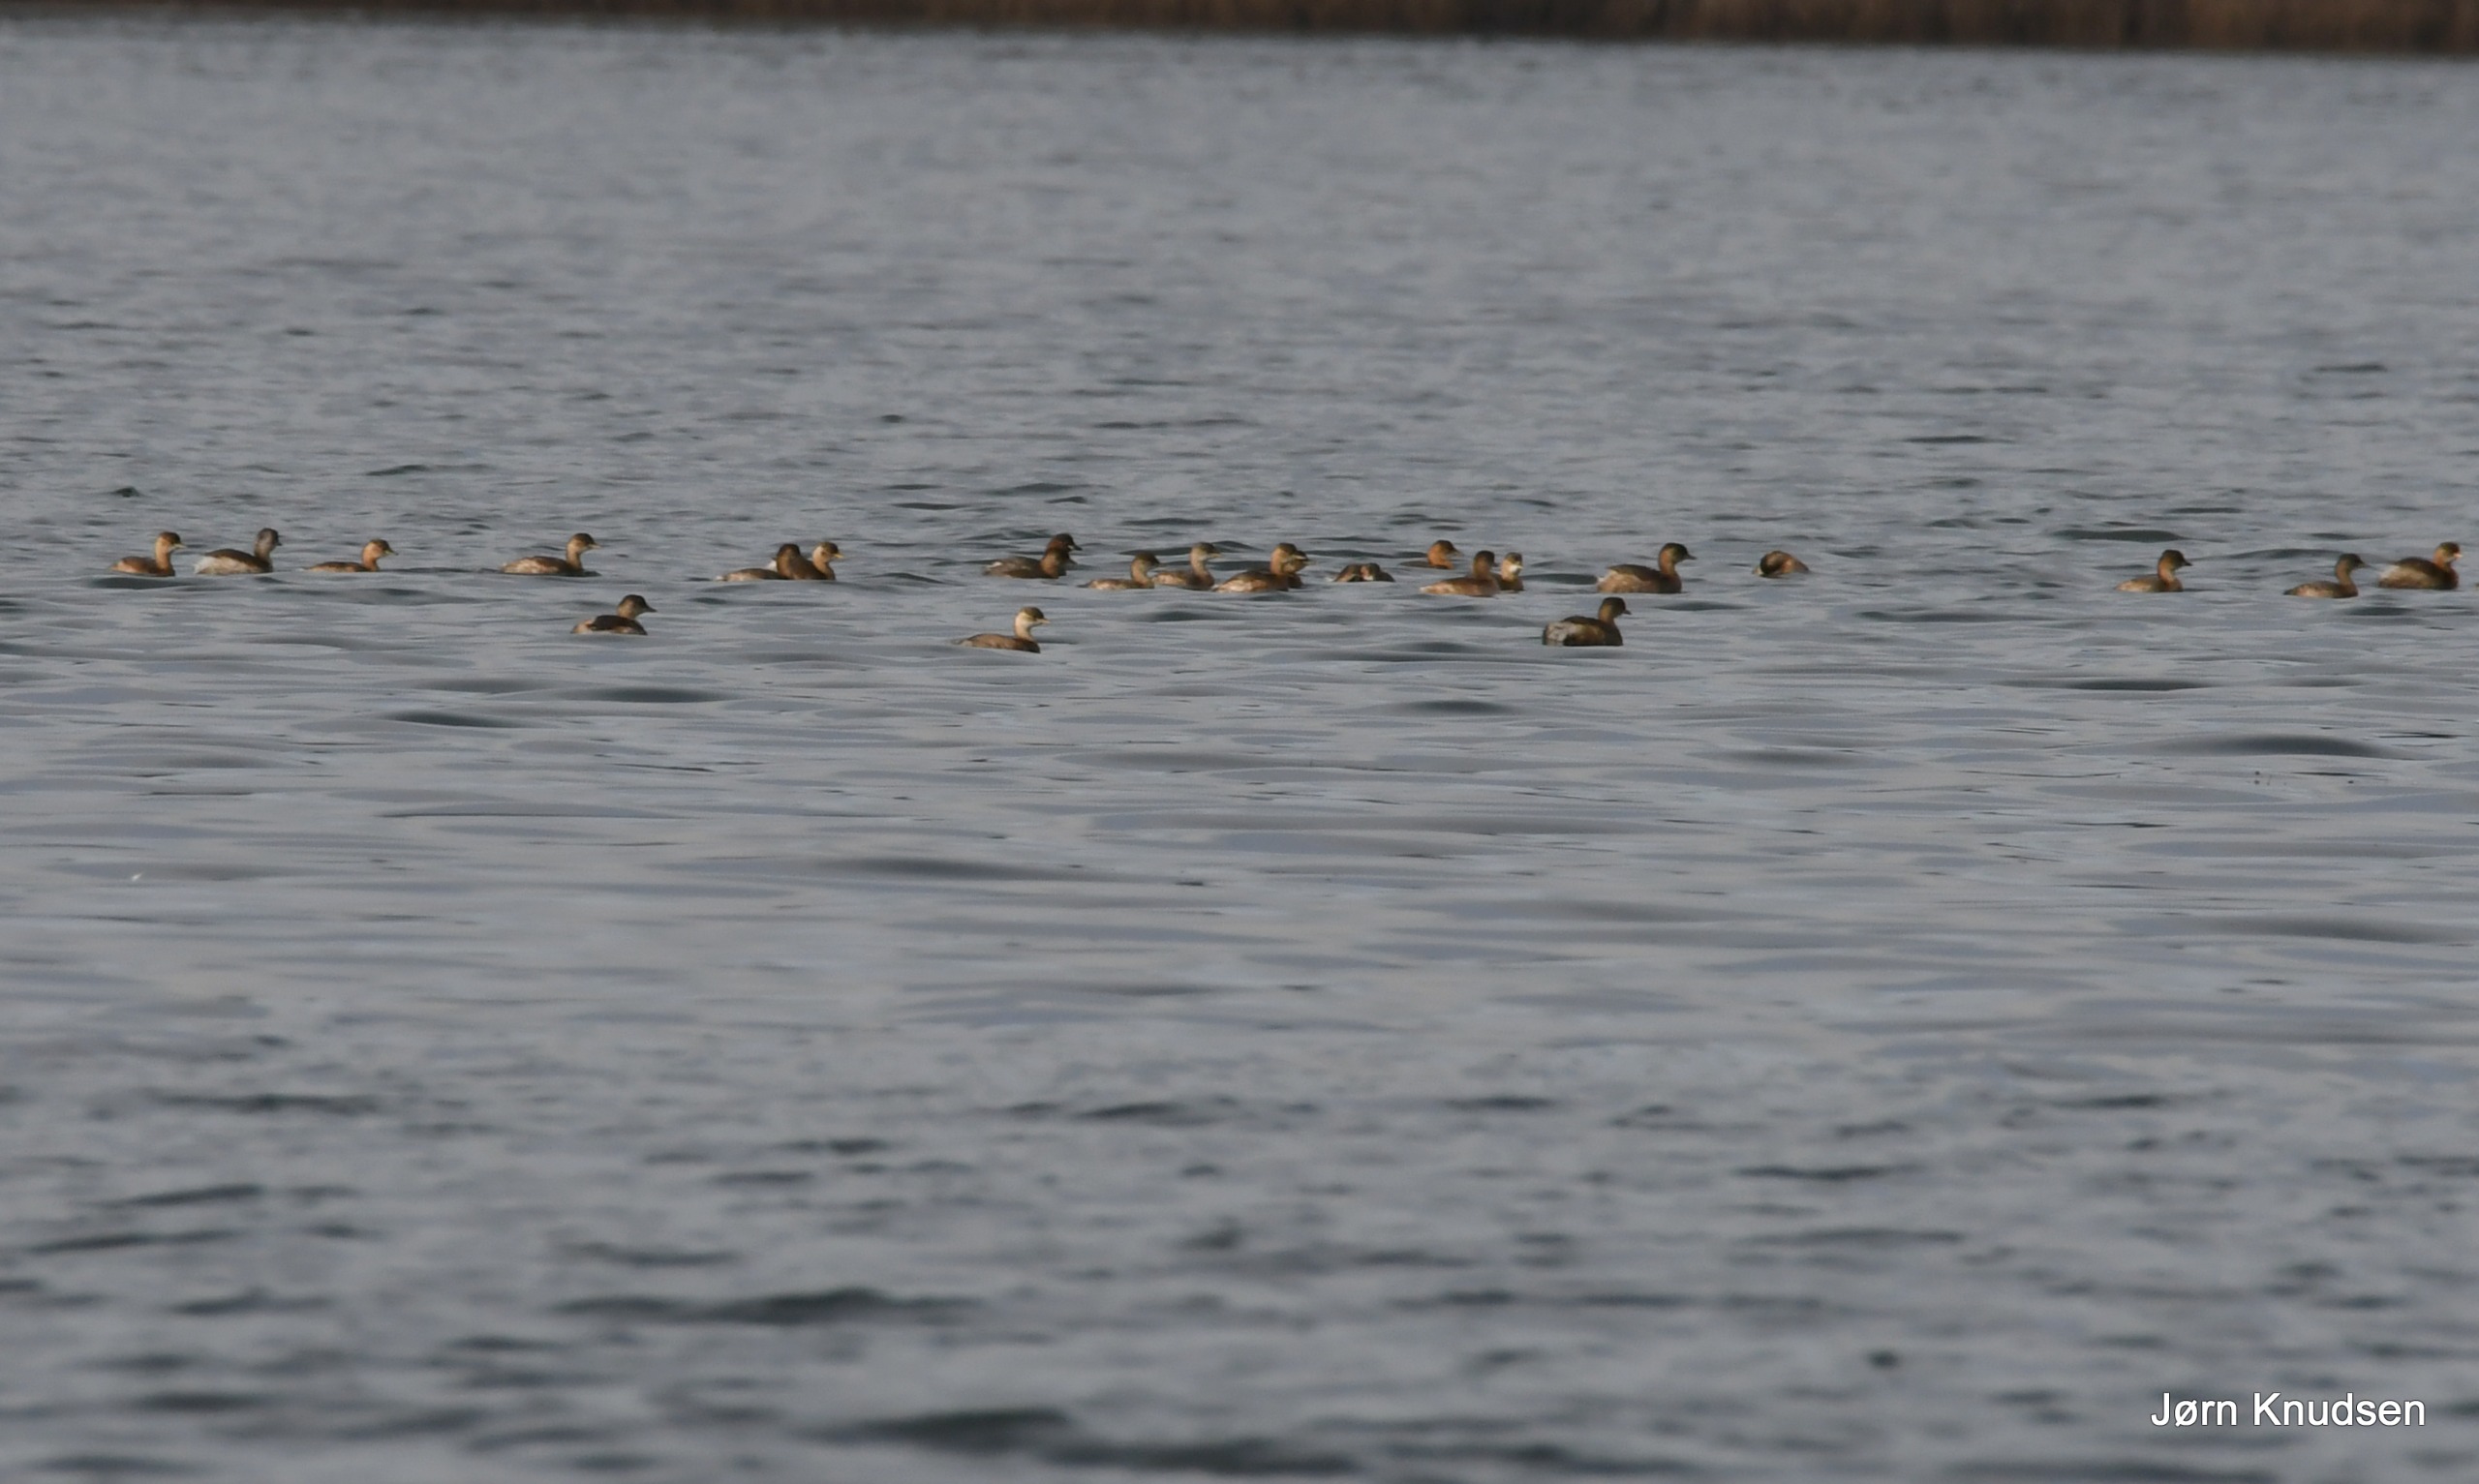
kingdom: Animalia
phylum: Chordata
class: Aves
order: Podicipediformes
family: Podicipedidae
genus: Tachybaptus
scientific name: Tachybaptus ruficollis
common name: Lille lappedykker
